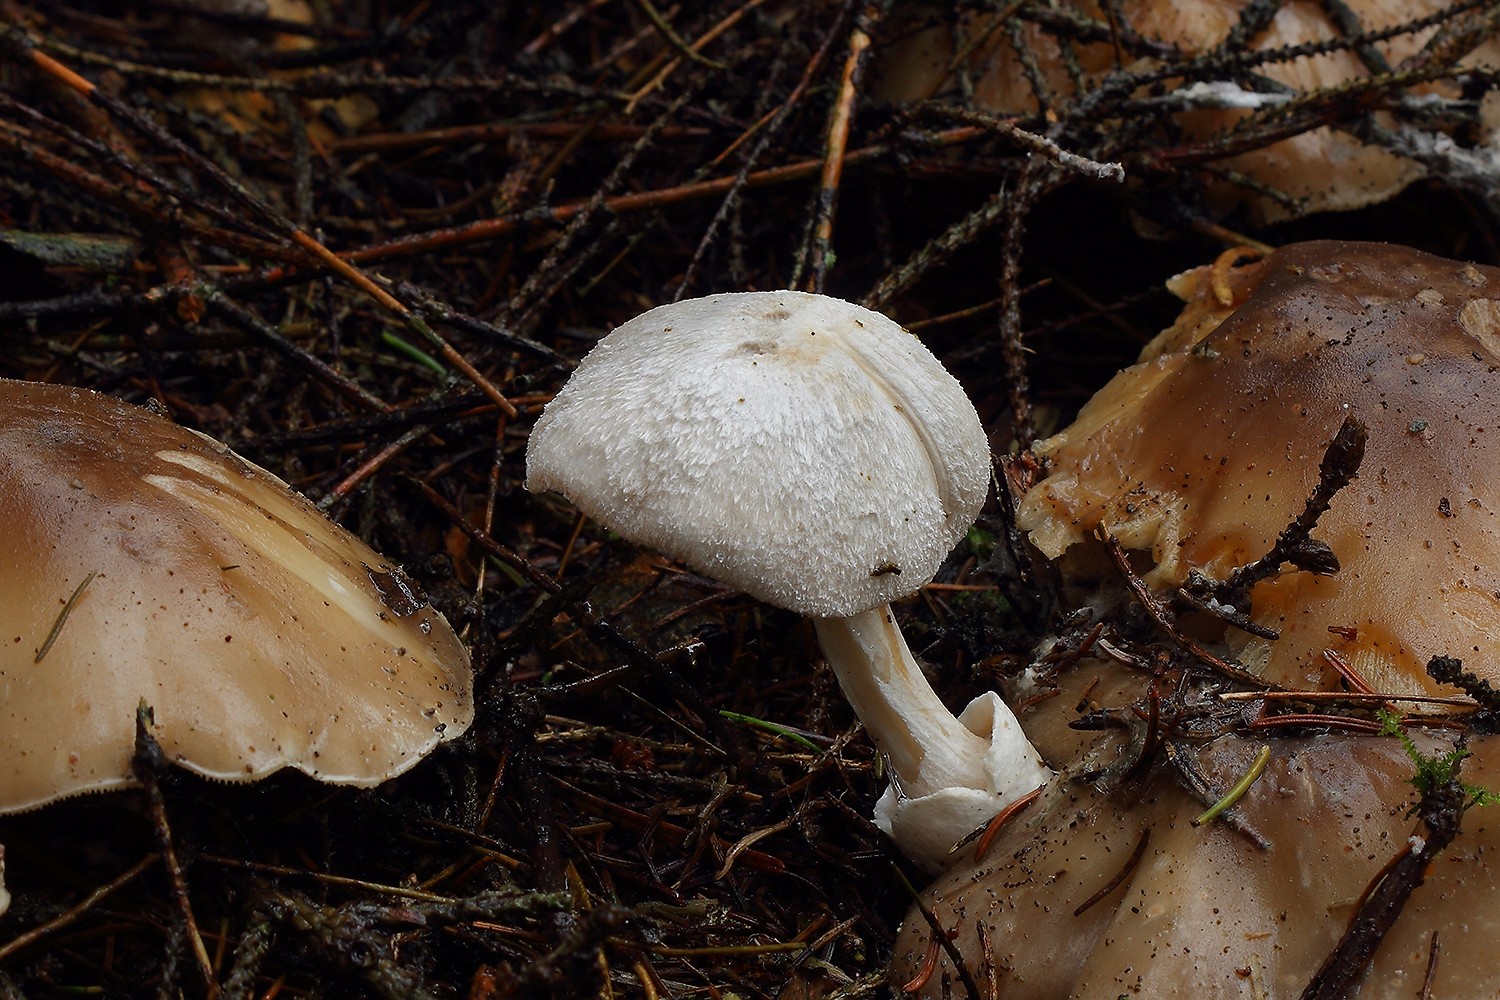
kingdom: Fungi
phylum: Basidiomycota
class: Agaricomycetes
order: Agaricales
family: Pluteaceae
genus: Volvariella
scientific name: Volvariella surrecta
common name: snyltende posesvamp
